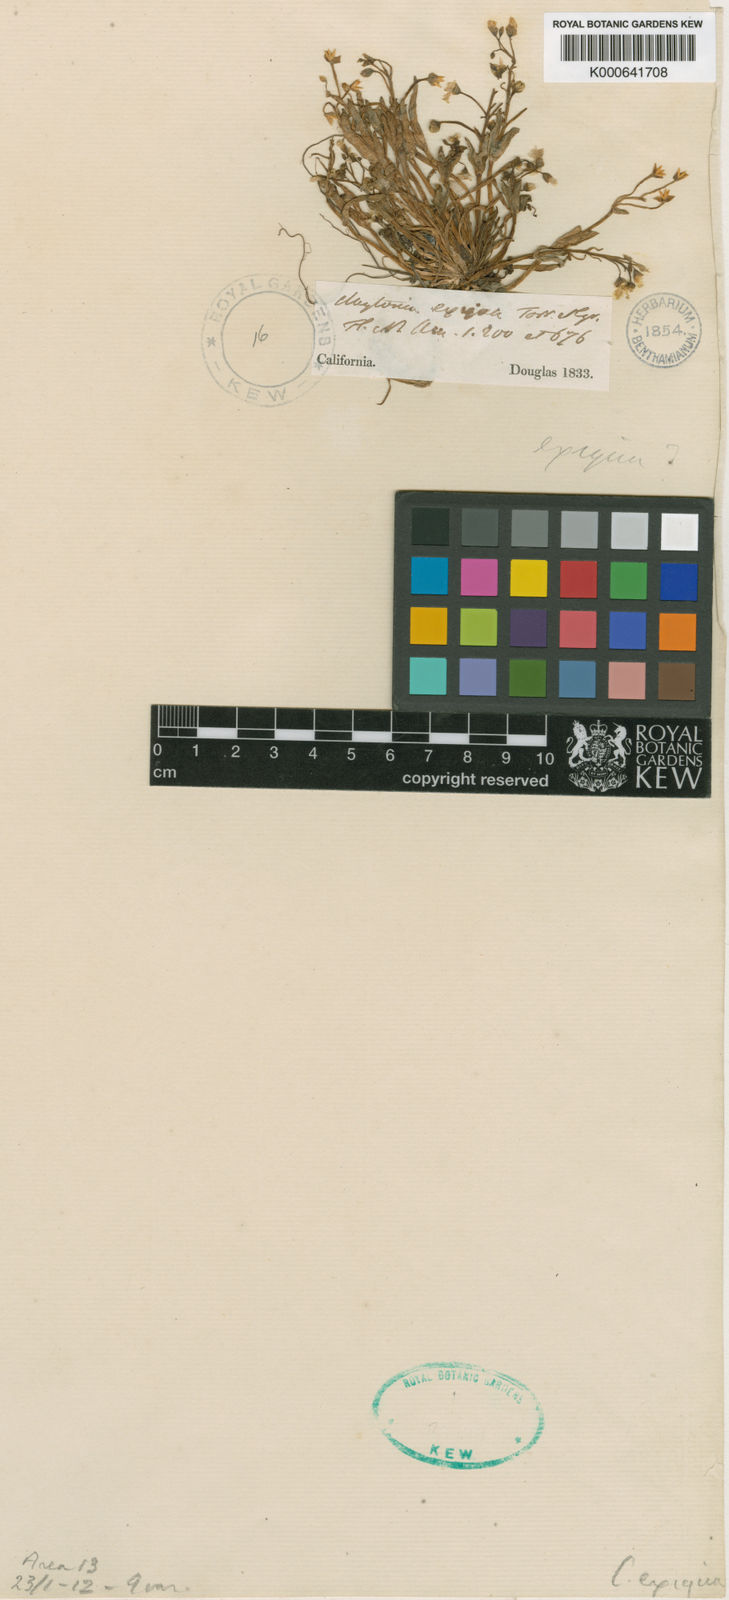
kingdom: Plantae
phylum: Tracheophyta
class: Magnoliopsida
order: Caryophyllales
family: Montiaceae
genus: Claytonia
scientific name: Claytonia exigua
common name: Pale spring beauty
